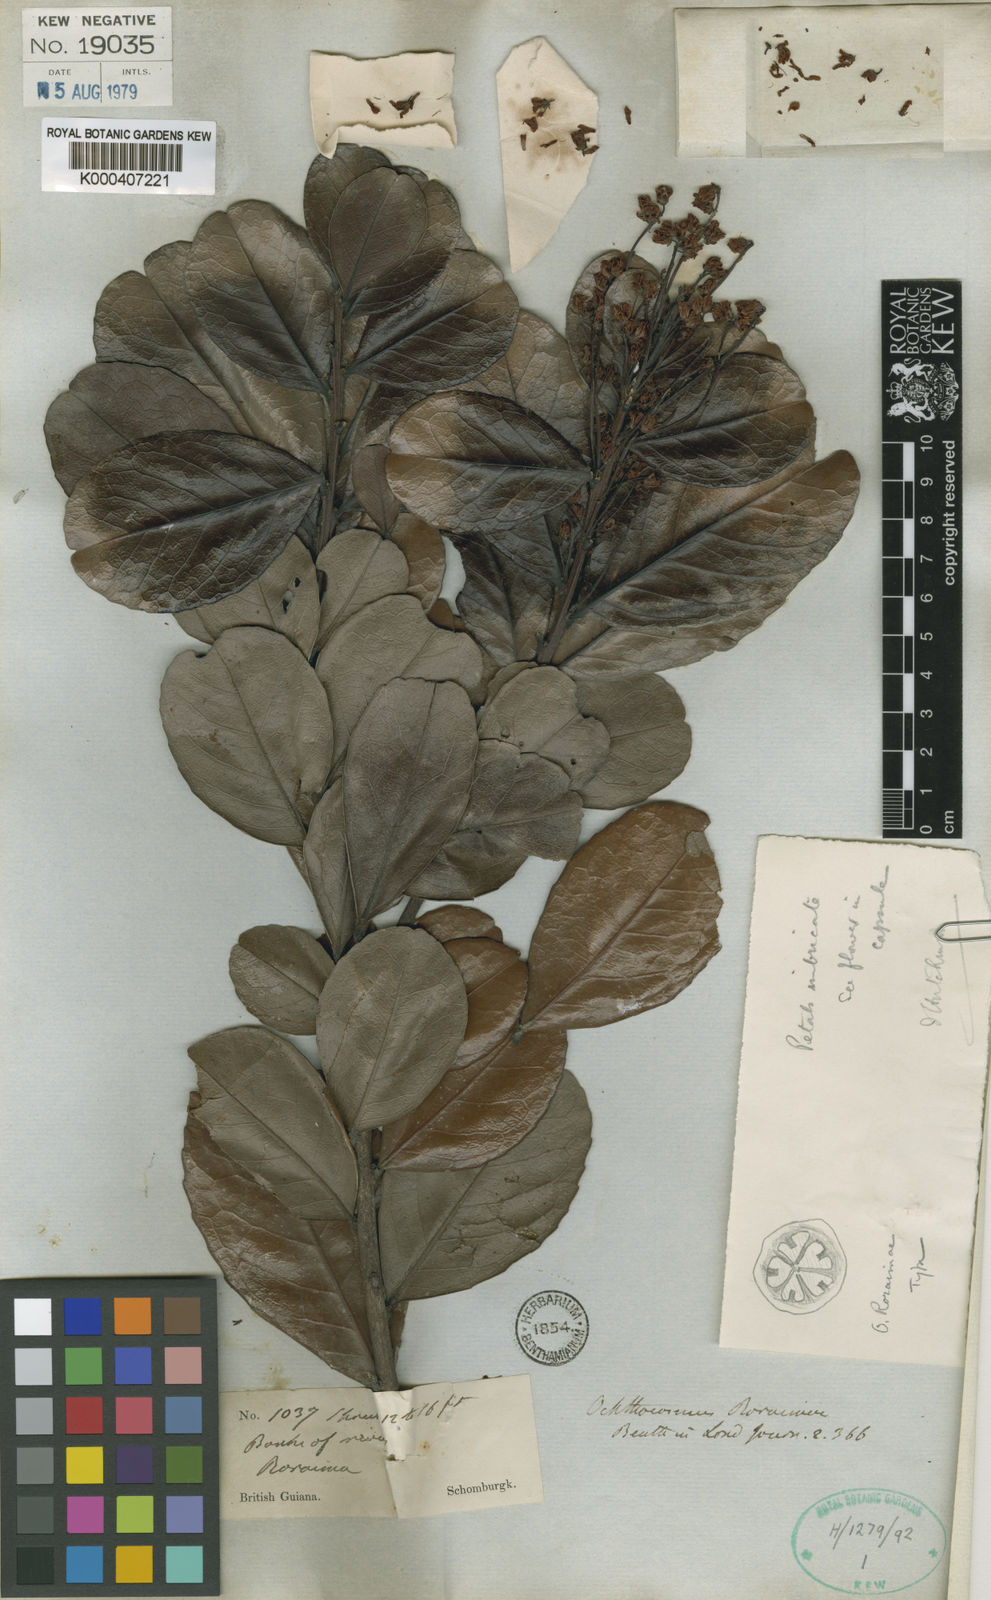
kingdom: Plantae
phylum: Tracheophyta
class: Magnoliopsida
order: Malpighiales
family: Ixonanthaceae
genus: Ochthocosmus
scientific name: Ochthocosmus roraimae
